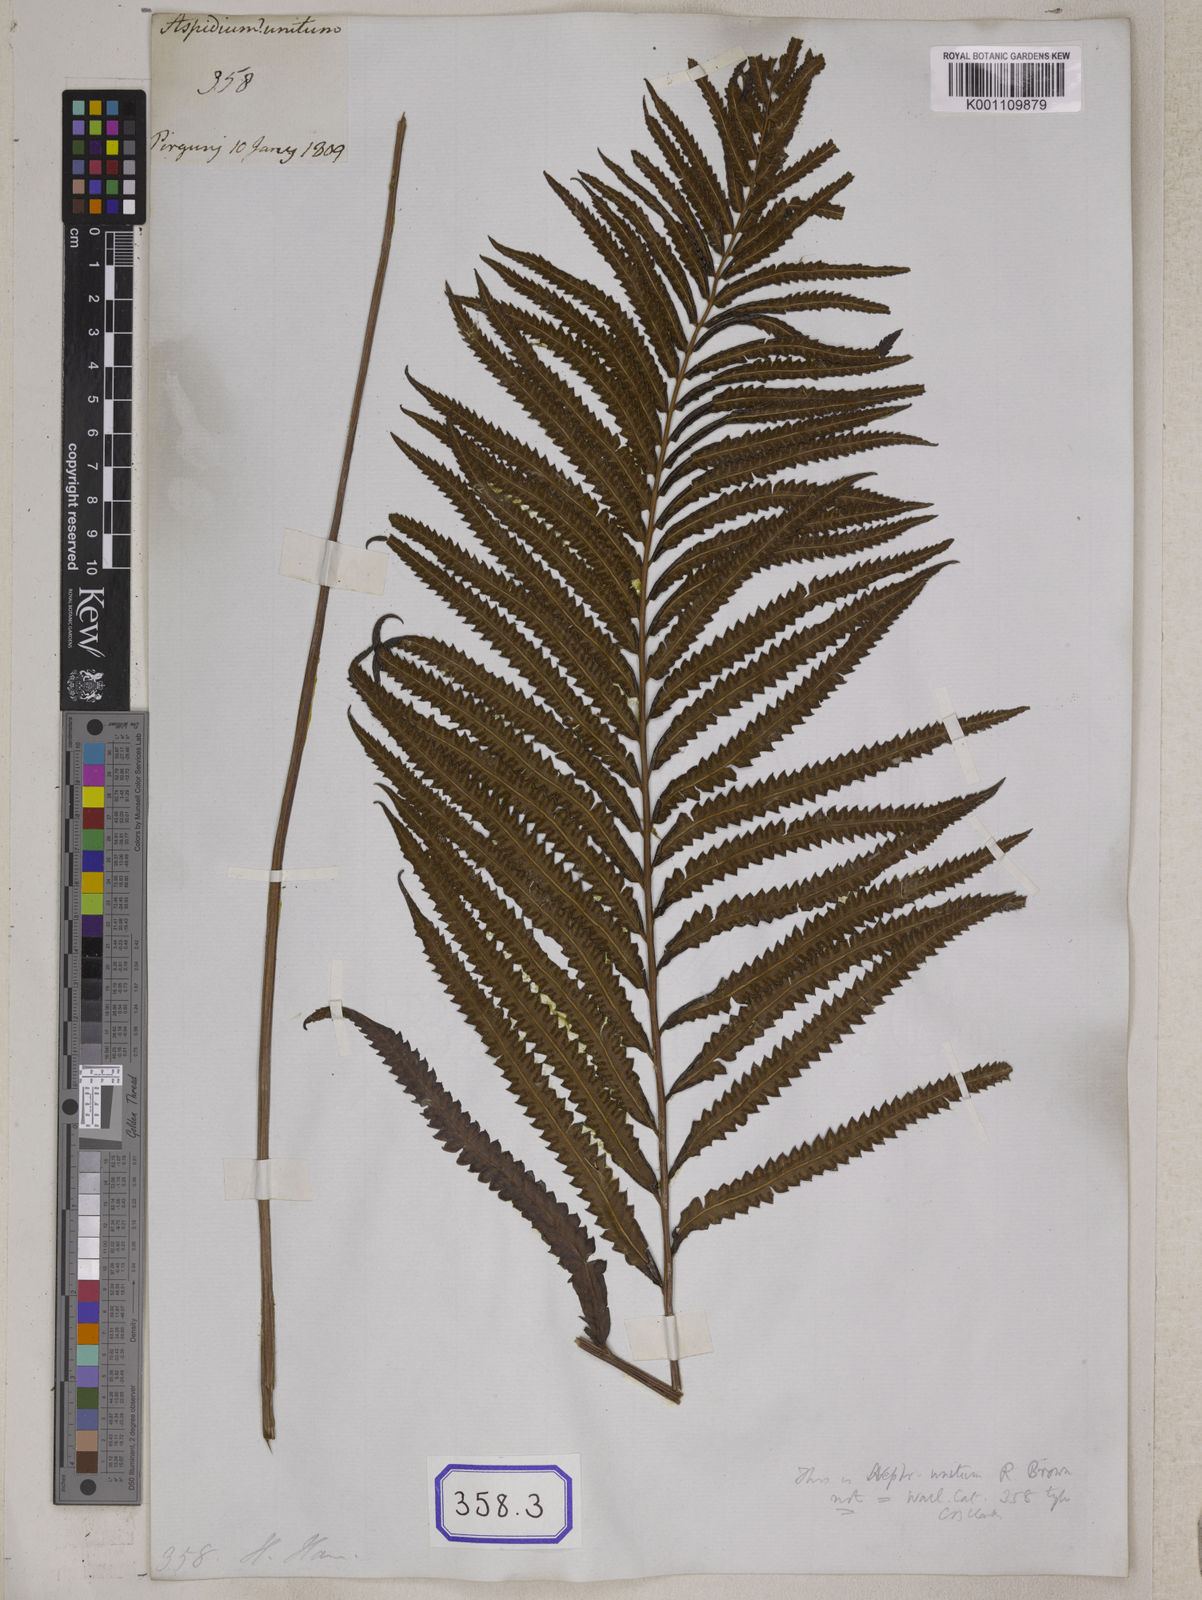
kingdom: Plantae
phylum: Tracheophyta
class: Polypodiopsida
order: Polypodiales
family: Thelypteridaceae
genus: Cyclosorus
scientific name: Cyclosorus interruptus
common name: Neke fern
